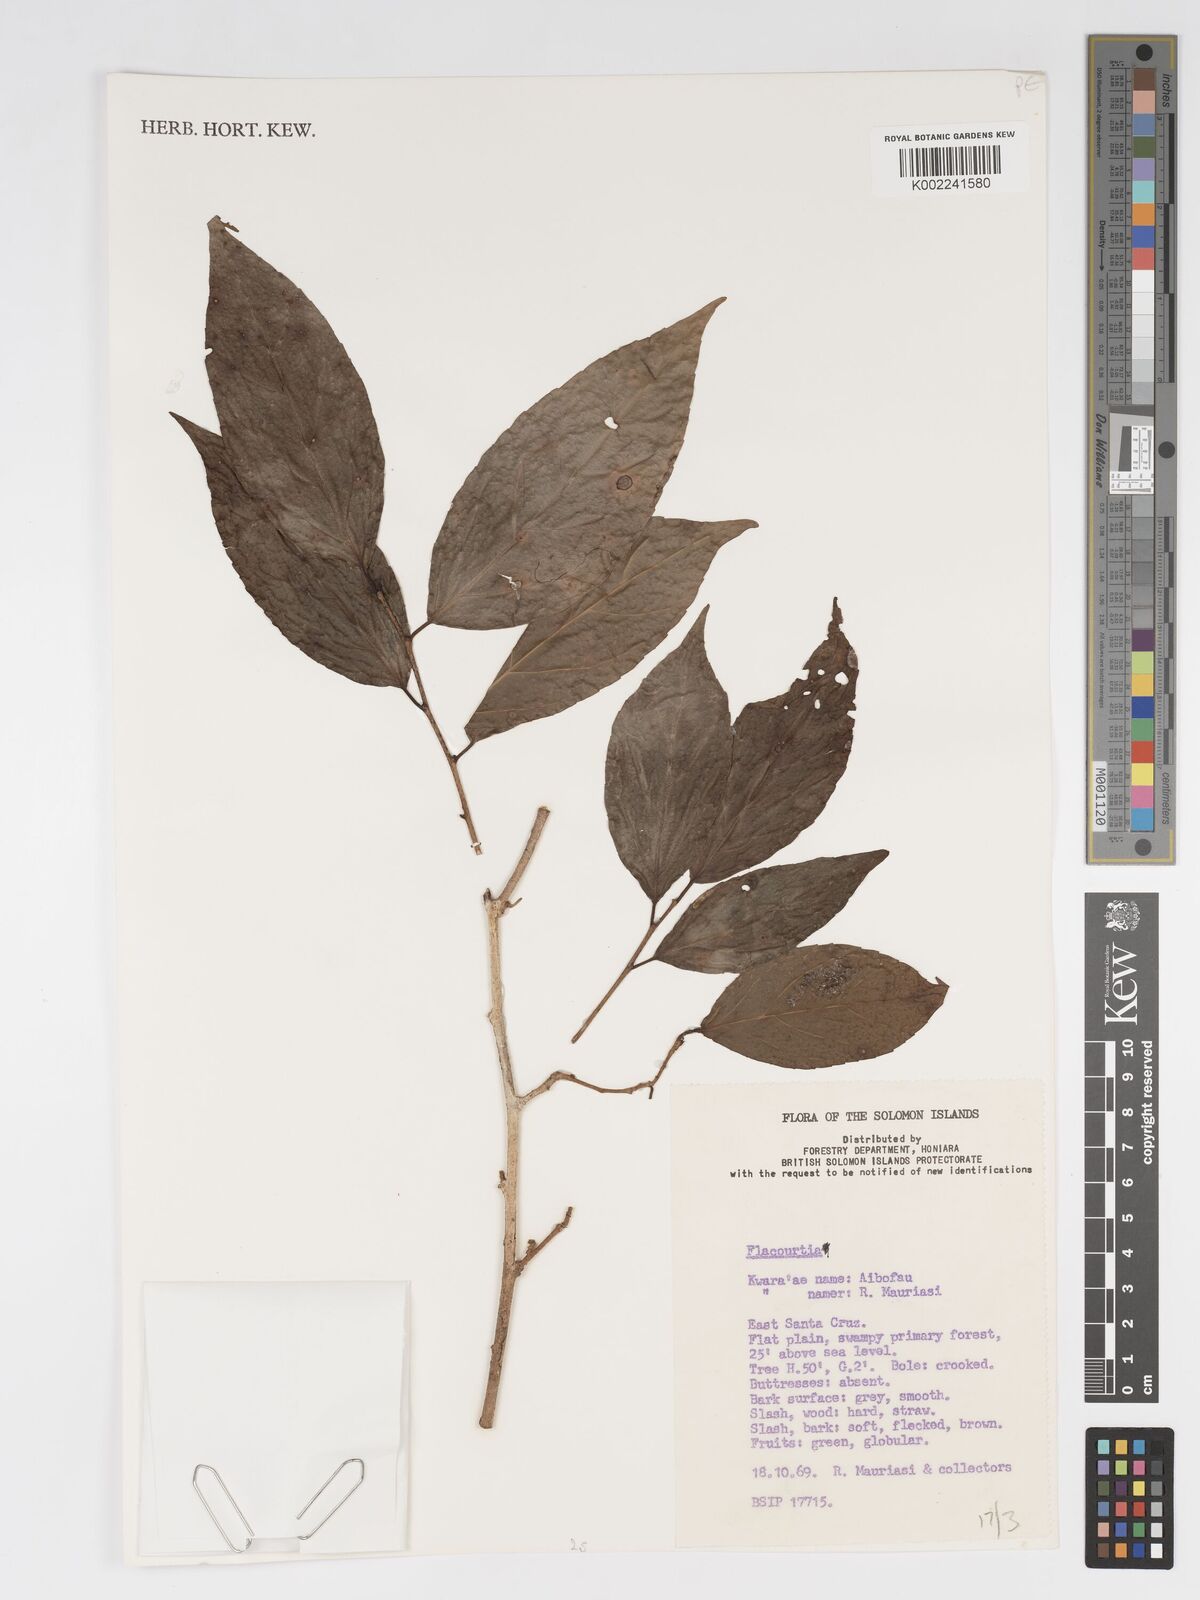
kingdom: Plantae
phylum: Tracheophyta
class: Magnoliopsida
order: Malpighiales
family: Salicaceae
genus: Flacourtia
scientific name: Flacourtia
